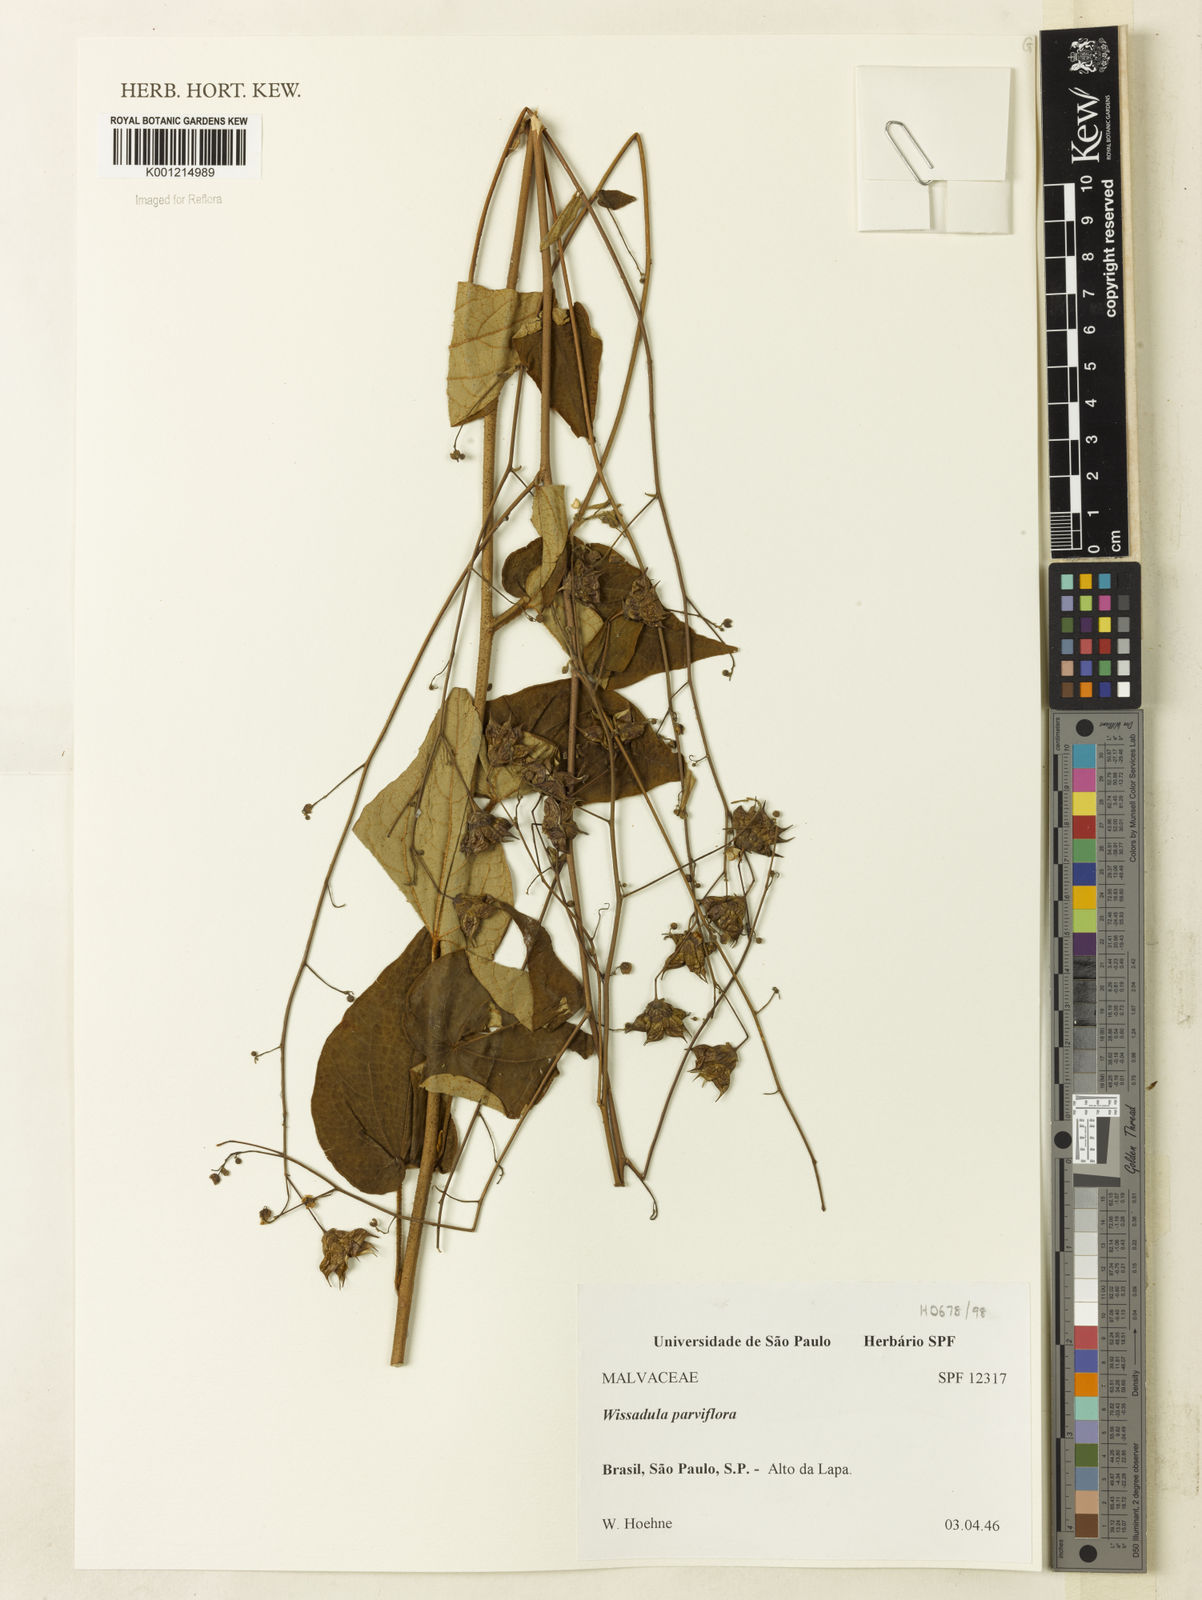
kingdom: Plantae
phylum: Tracheophyta
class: Magnoliopsida
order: Malvales
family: Malvaceae
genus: Wissadula
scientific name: Wissadula parviflora
